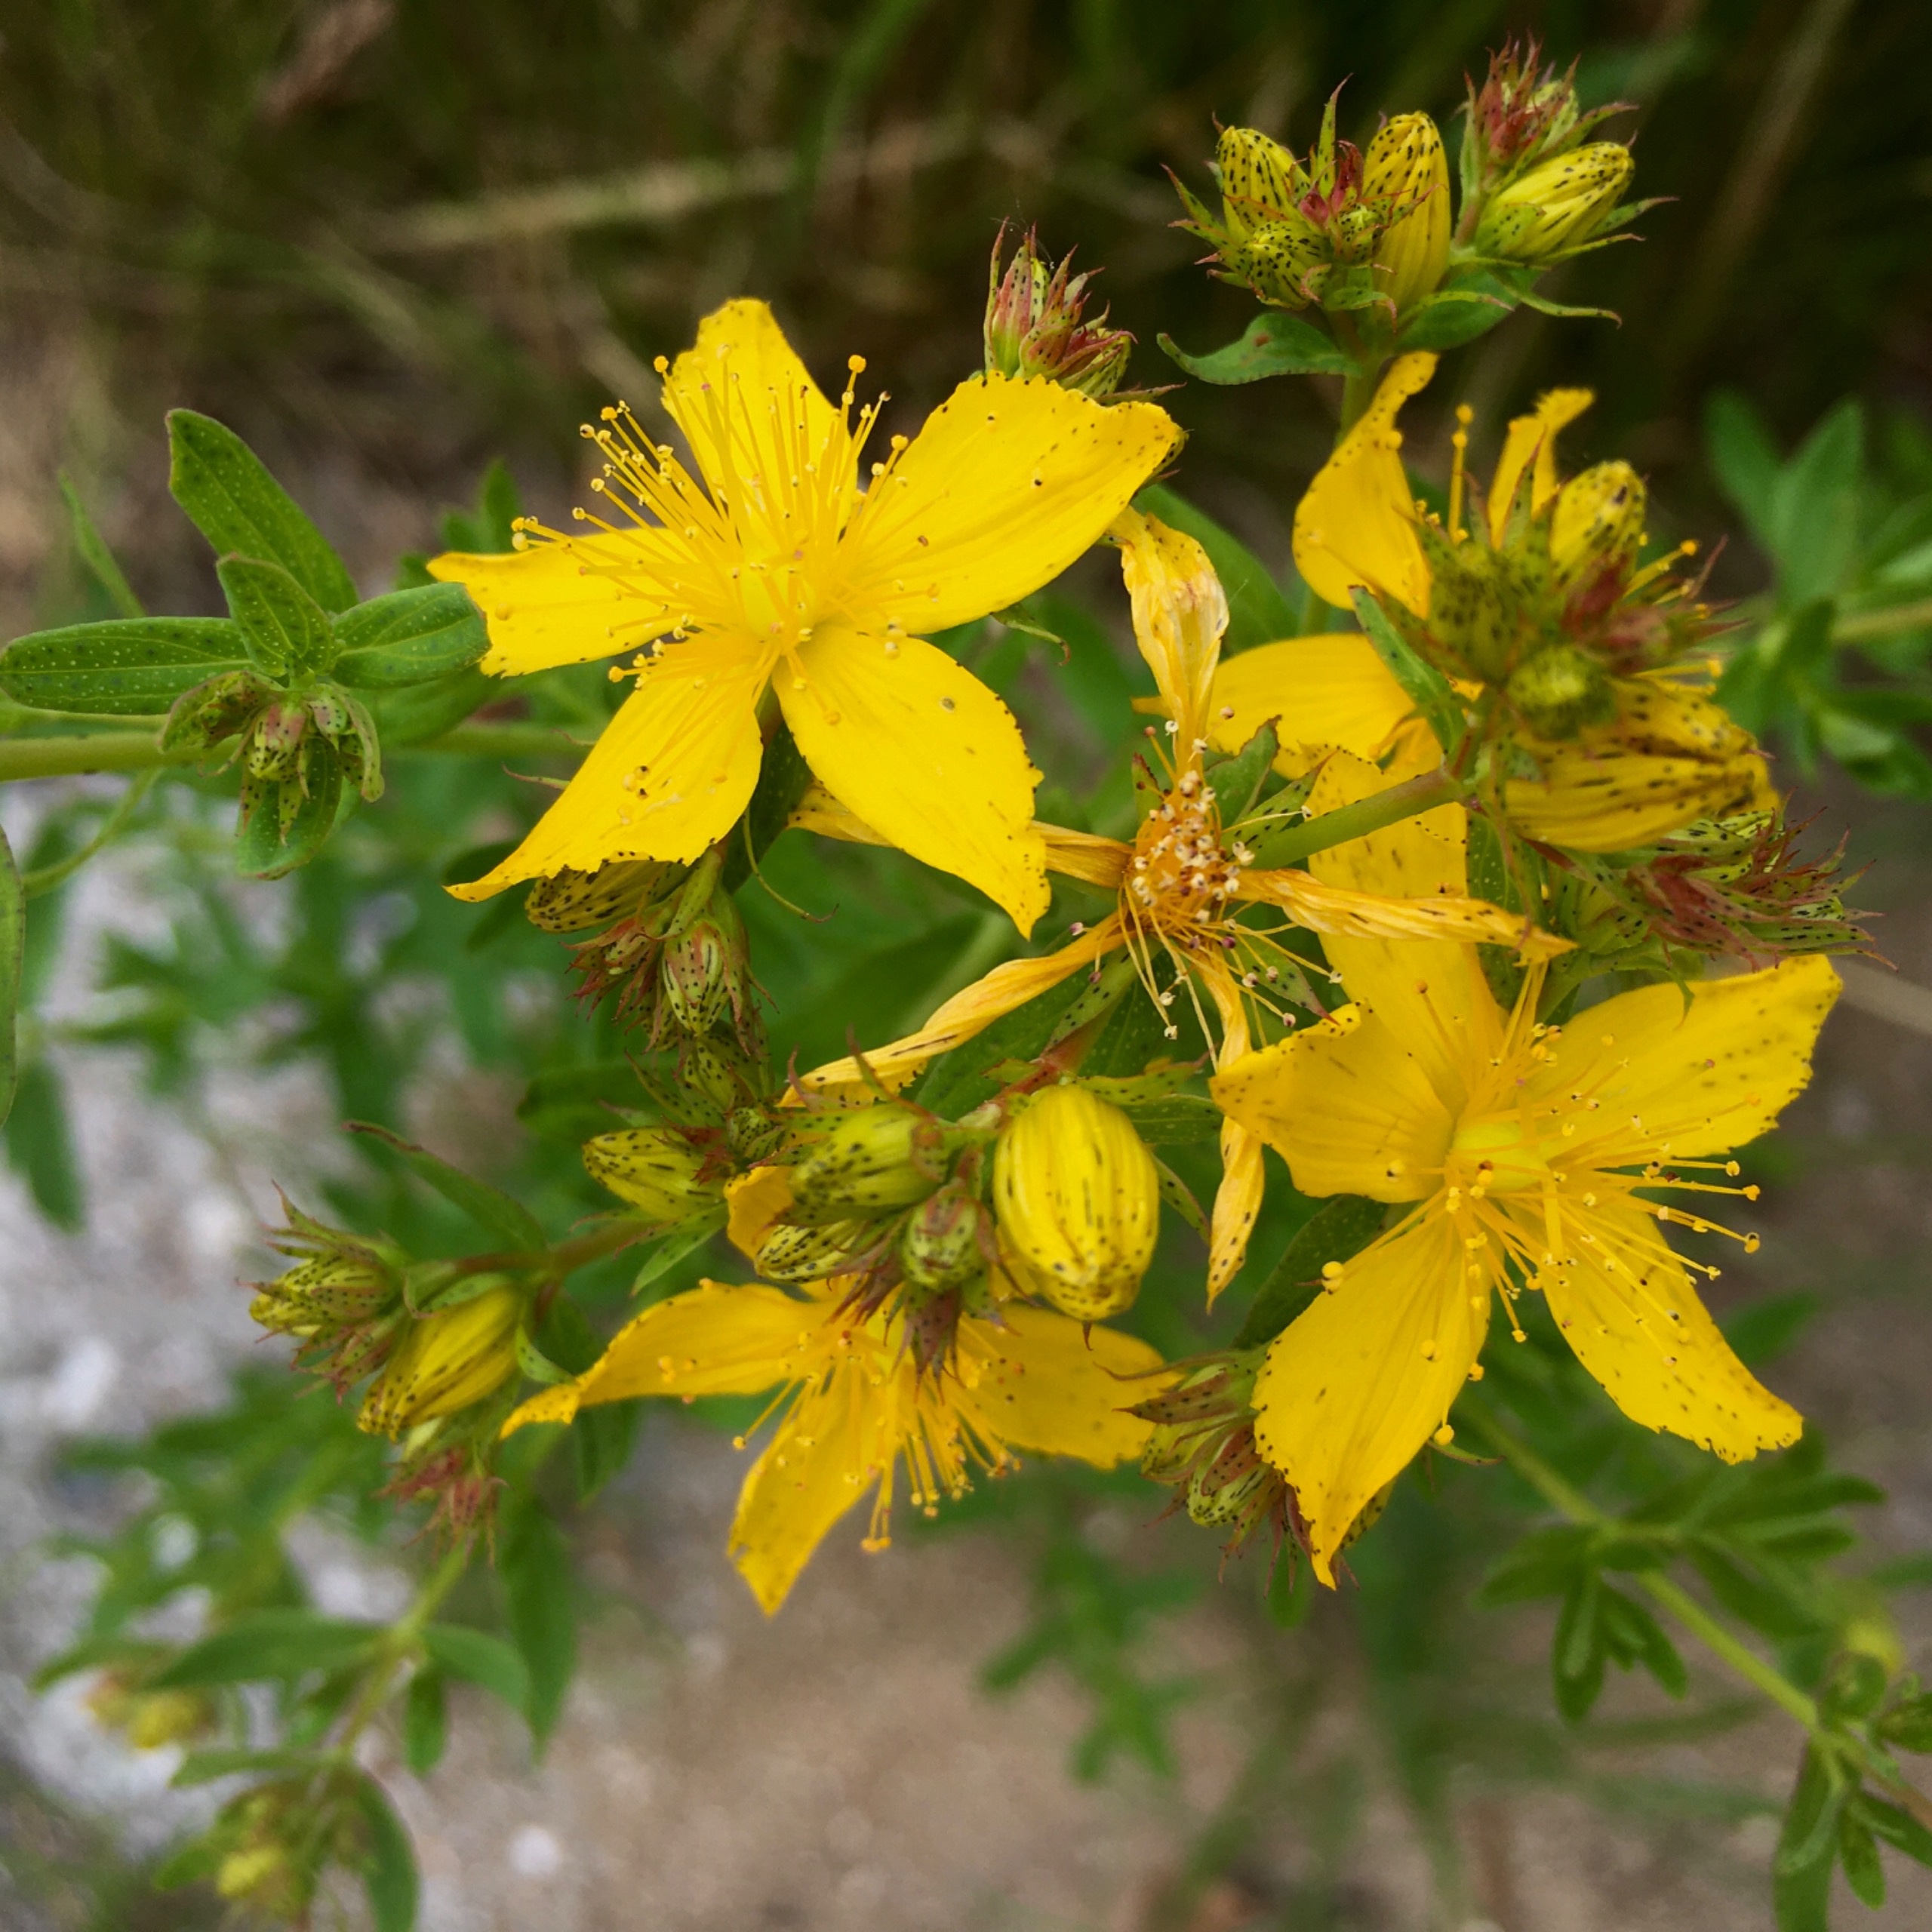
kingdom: Plantae
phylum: Tracheophyta
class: Magnoliopsida
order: Malpighiales
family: Hypericaceae
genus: Hypericum
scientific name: Hypericum perforatum
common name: Prikbladet perikon
